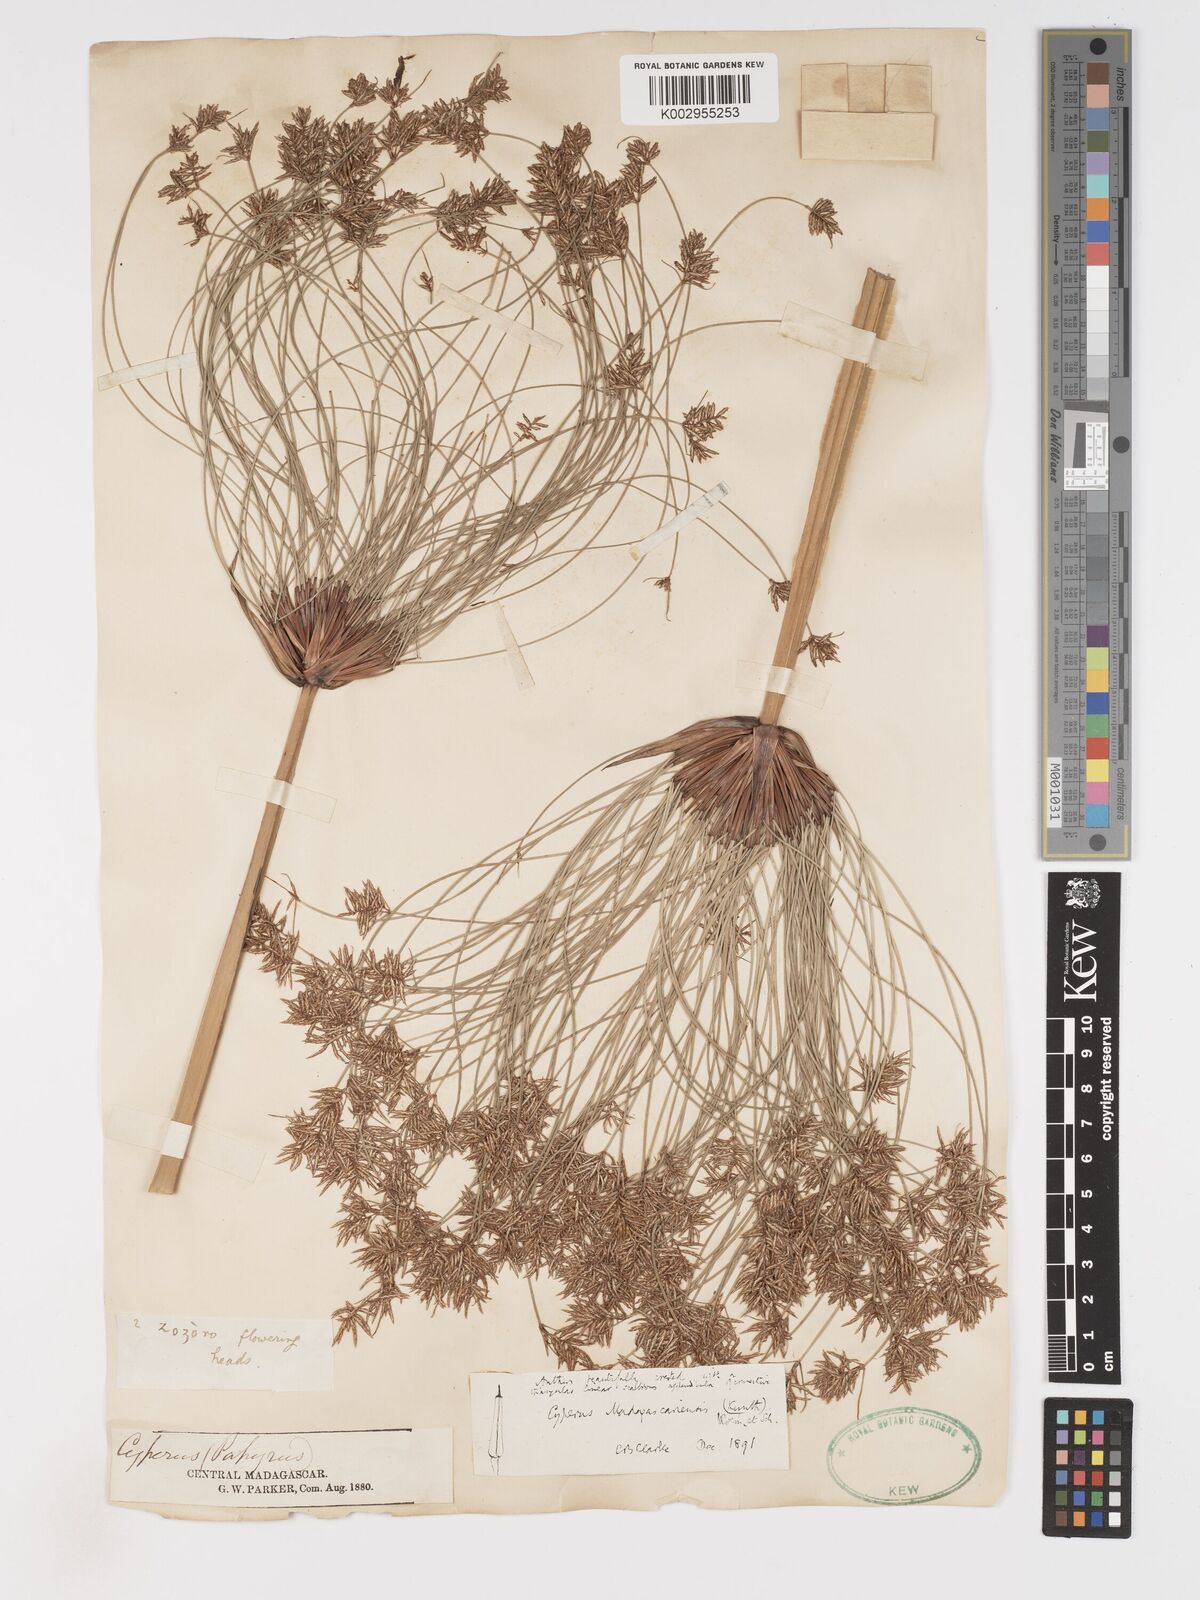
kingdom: Plantae
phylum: Tracheophyta
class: Liliopsida
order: Poales
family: Cyperaceae
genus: Cyperus
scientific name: Cyperus papyrus
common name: Papyrus
